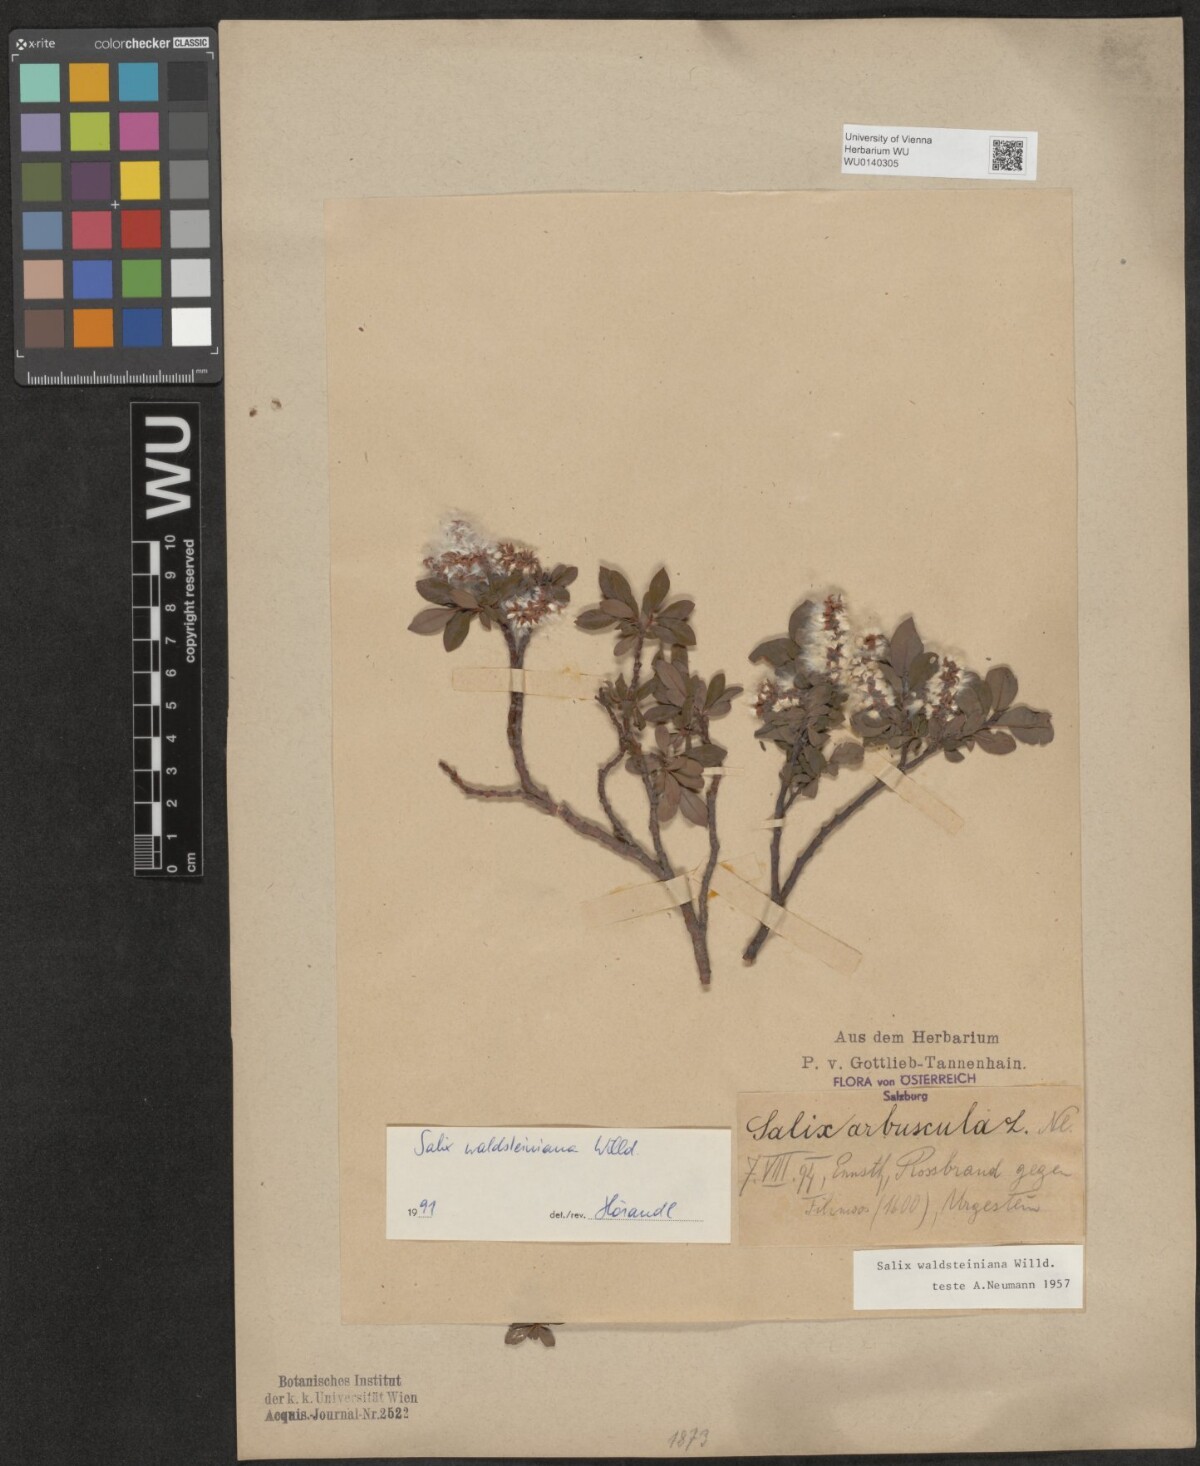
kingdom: Plantae
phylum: Tracheophyta
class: Magnoliopsida
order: Malpighiales
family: Salicaceae
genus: Salix
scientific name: Salix waldsteiniana
